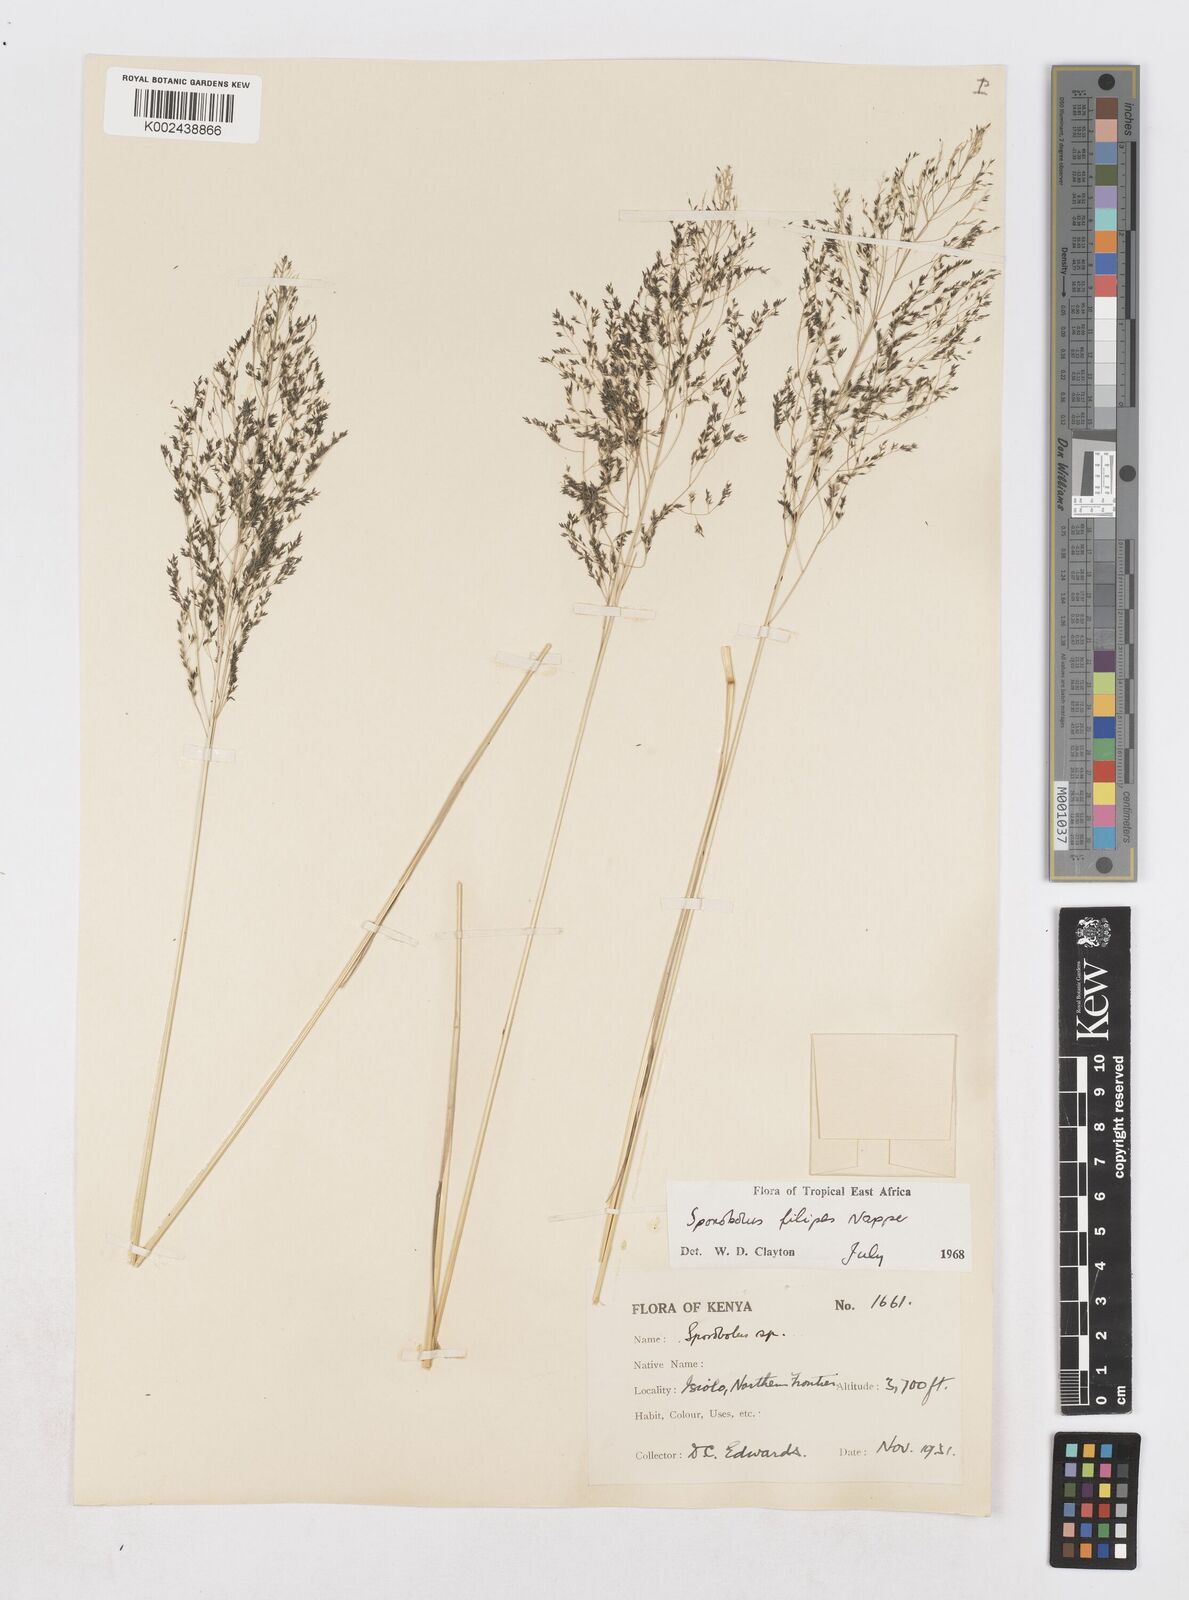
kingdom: Plantae
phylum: Tracheophyta
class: Liliopsida
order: Poales
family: Poaceae
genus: Sporobolus
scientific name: Sporobolus agrostoides
